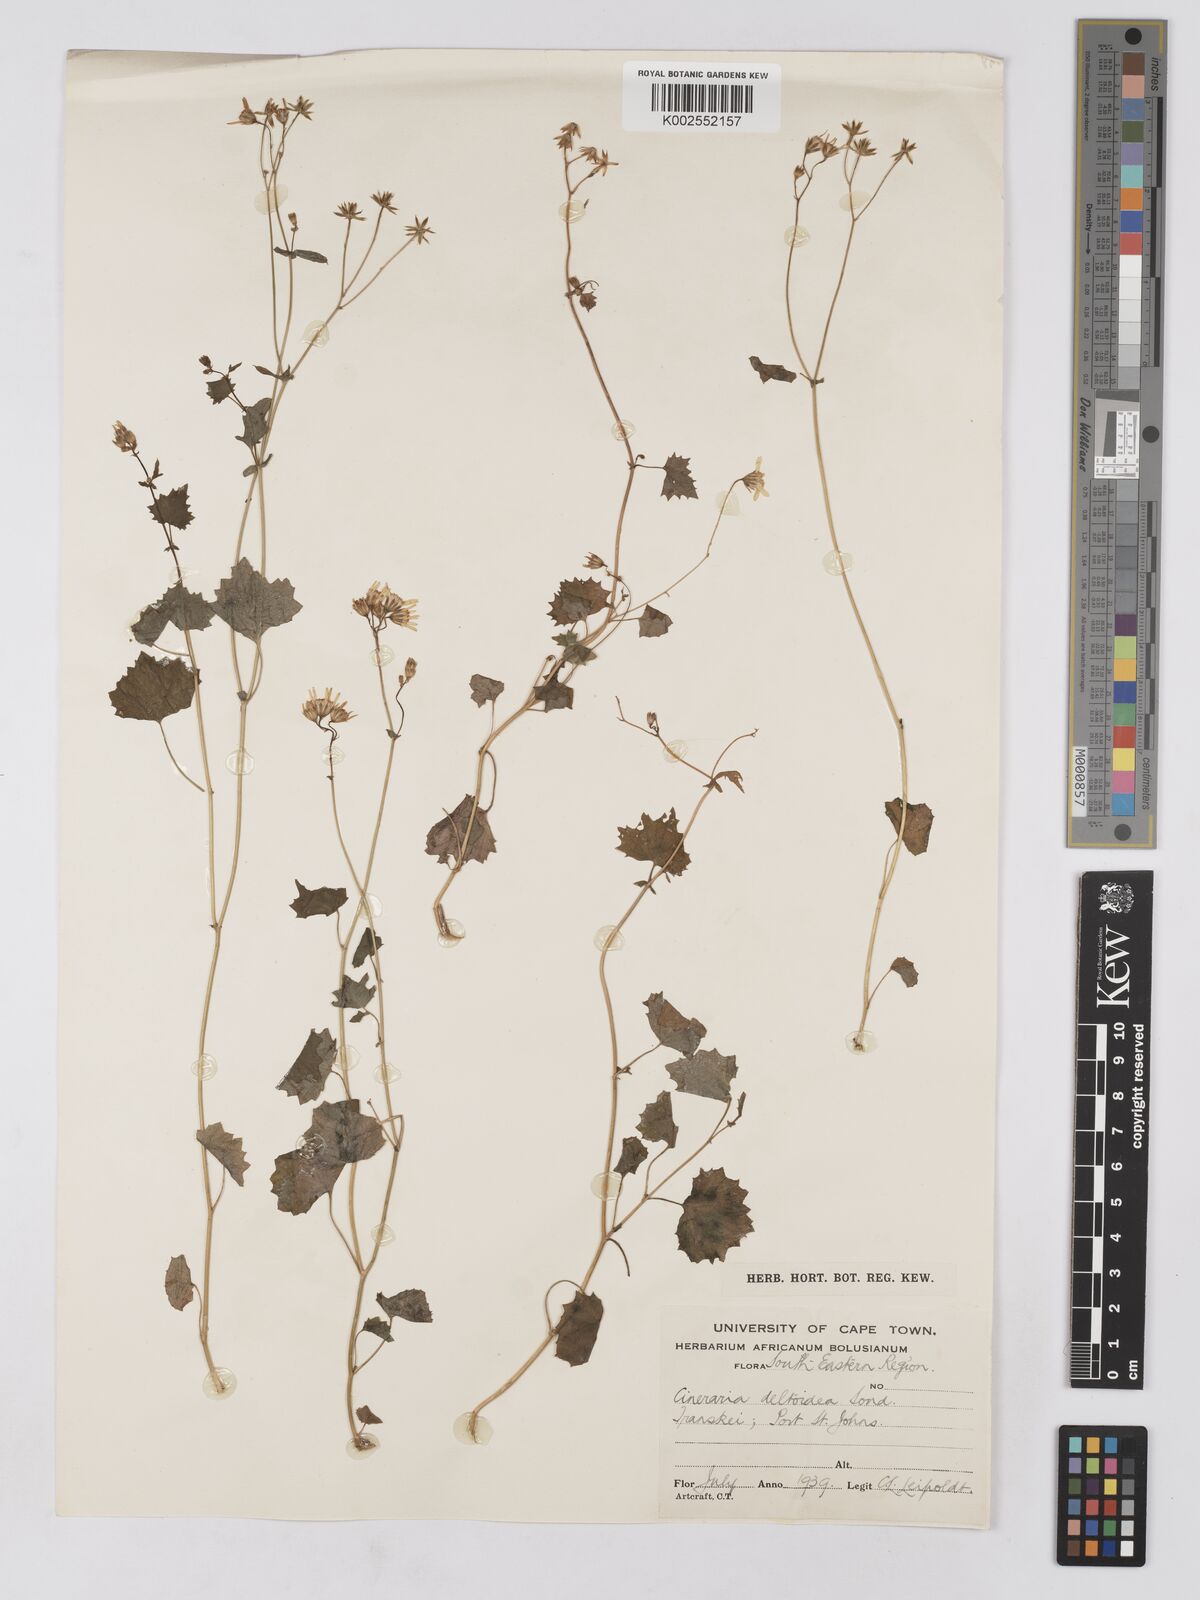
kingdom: Plantae
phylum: Tracheophyta
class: Magnoliopsida
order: Asterales
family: Asteraceae
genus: Cineraria
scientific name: Cineraria deltoidea
